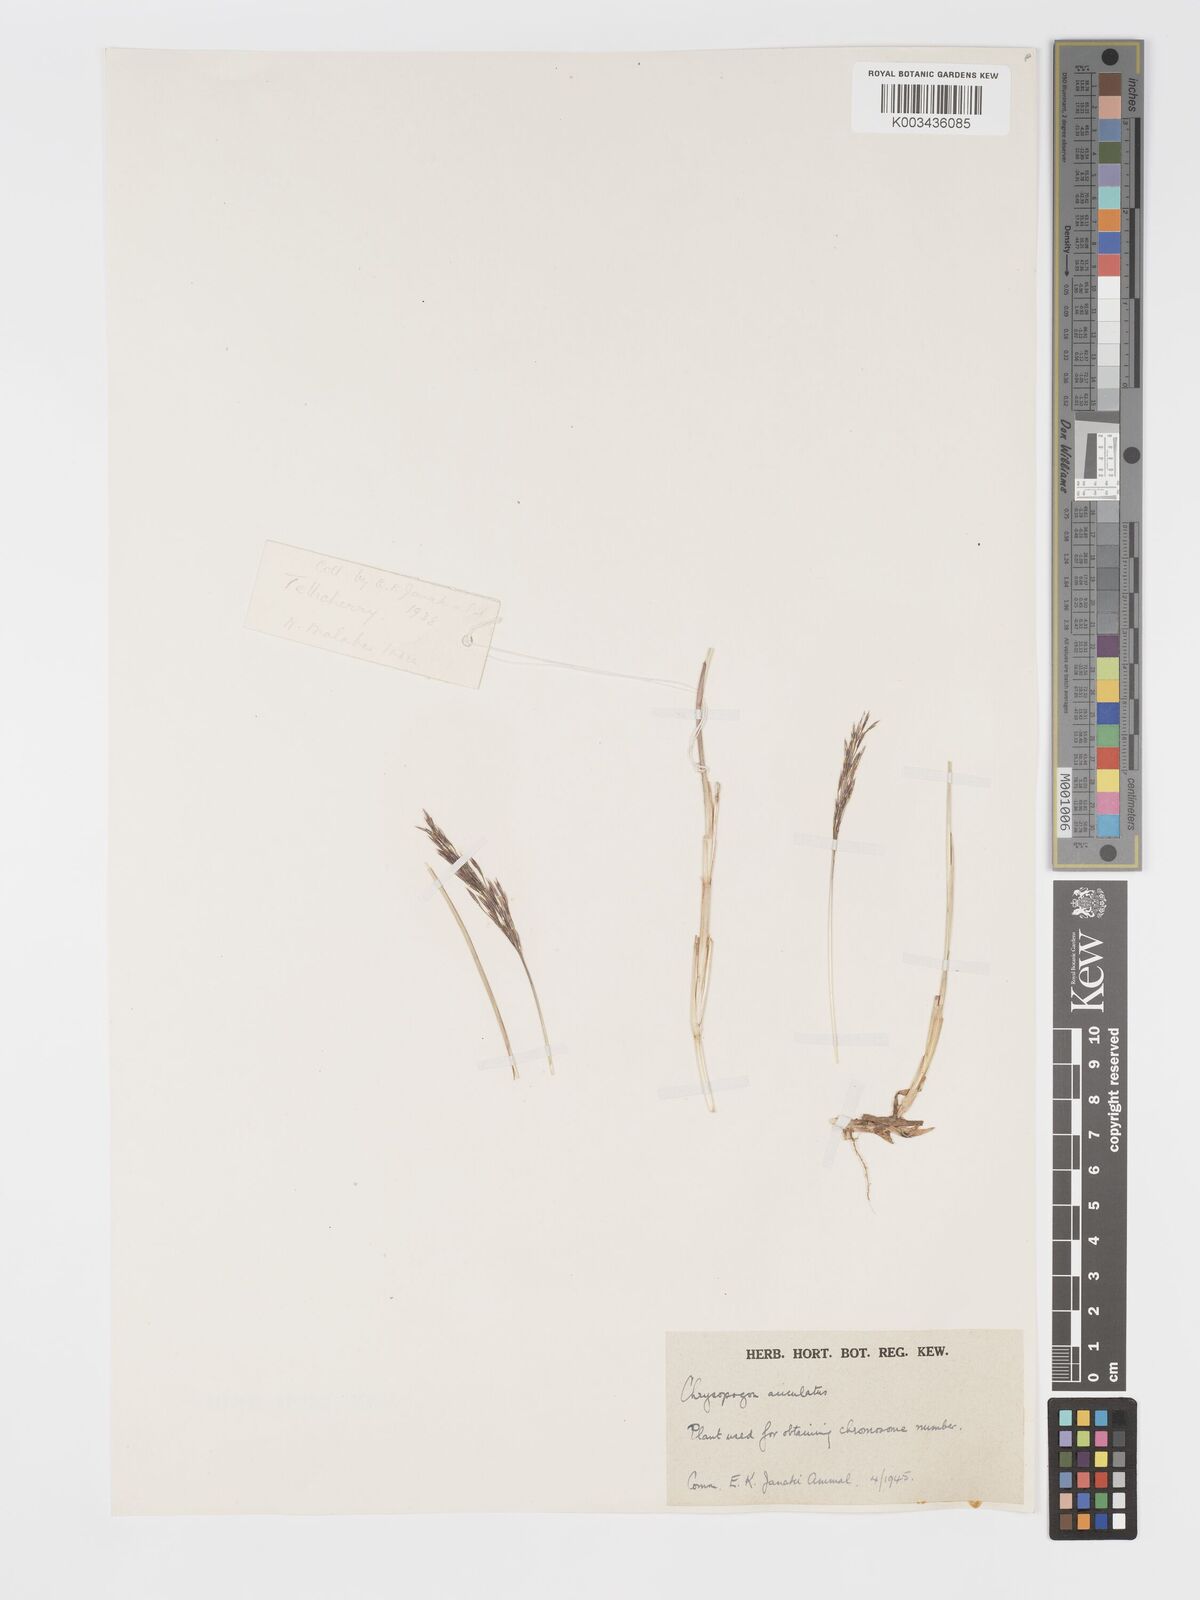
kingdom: Plantae
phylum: Tracheophyta
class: Liliopsida
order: Poales
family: Poaceae
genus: Chrysopogon
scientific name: Chrysopogon aciculatus
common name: Pilipiliula
